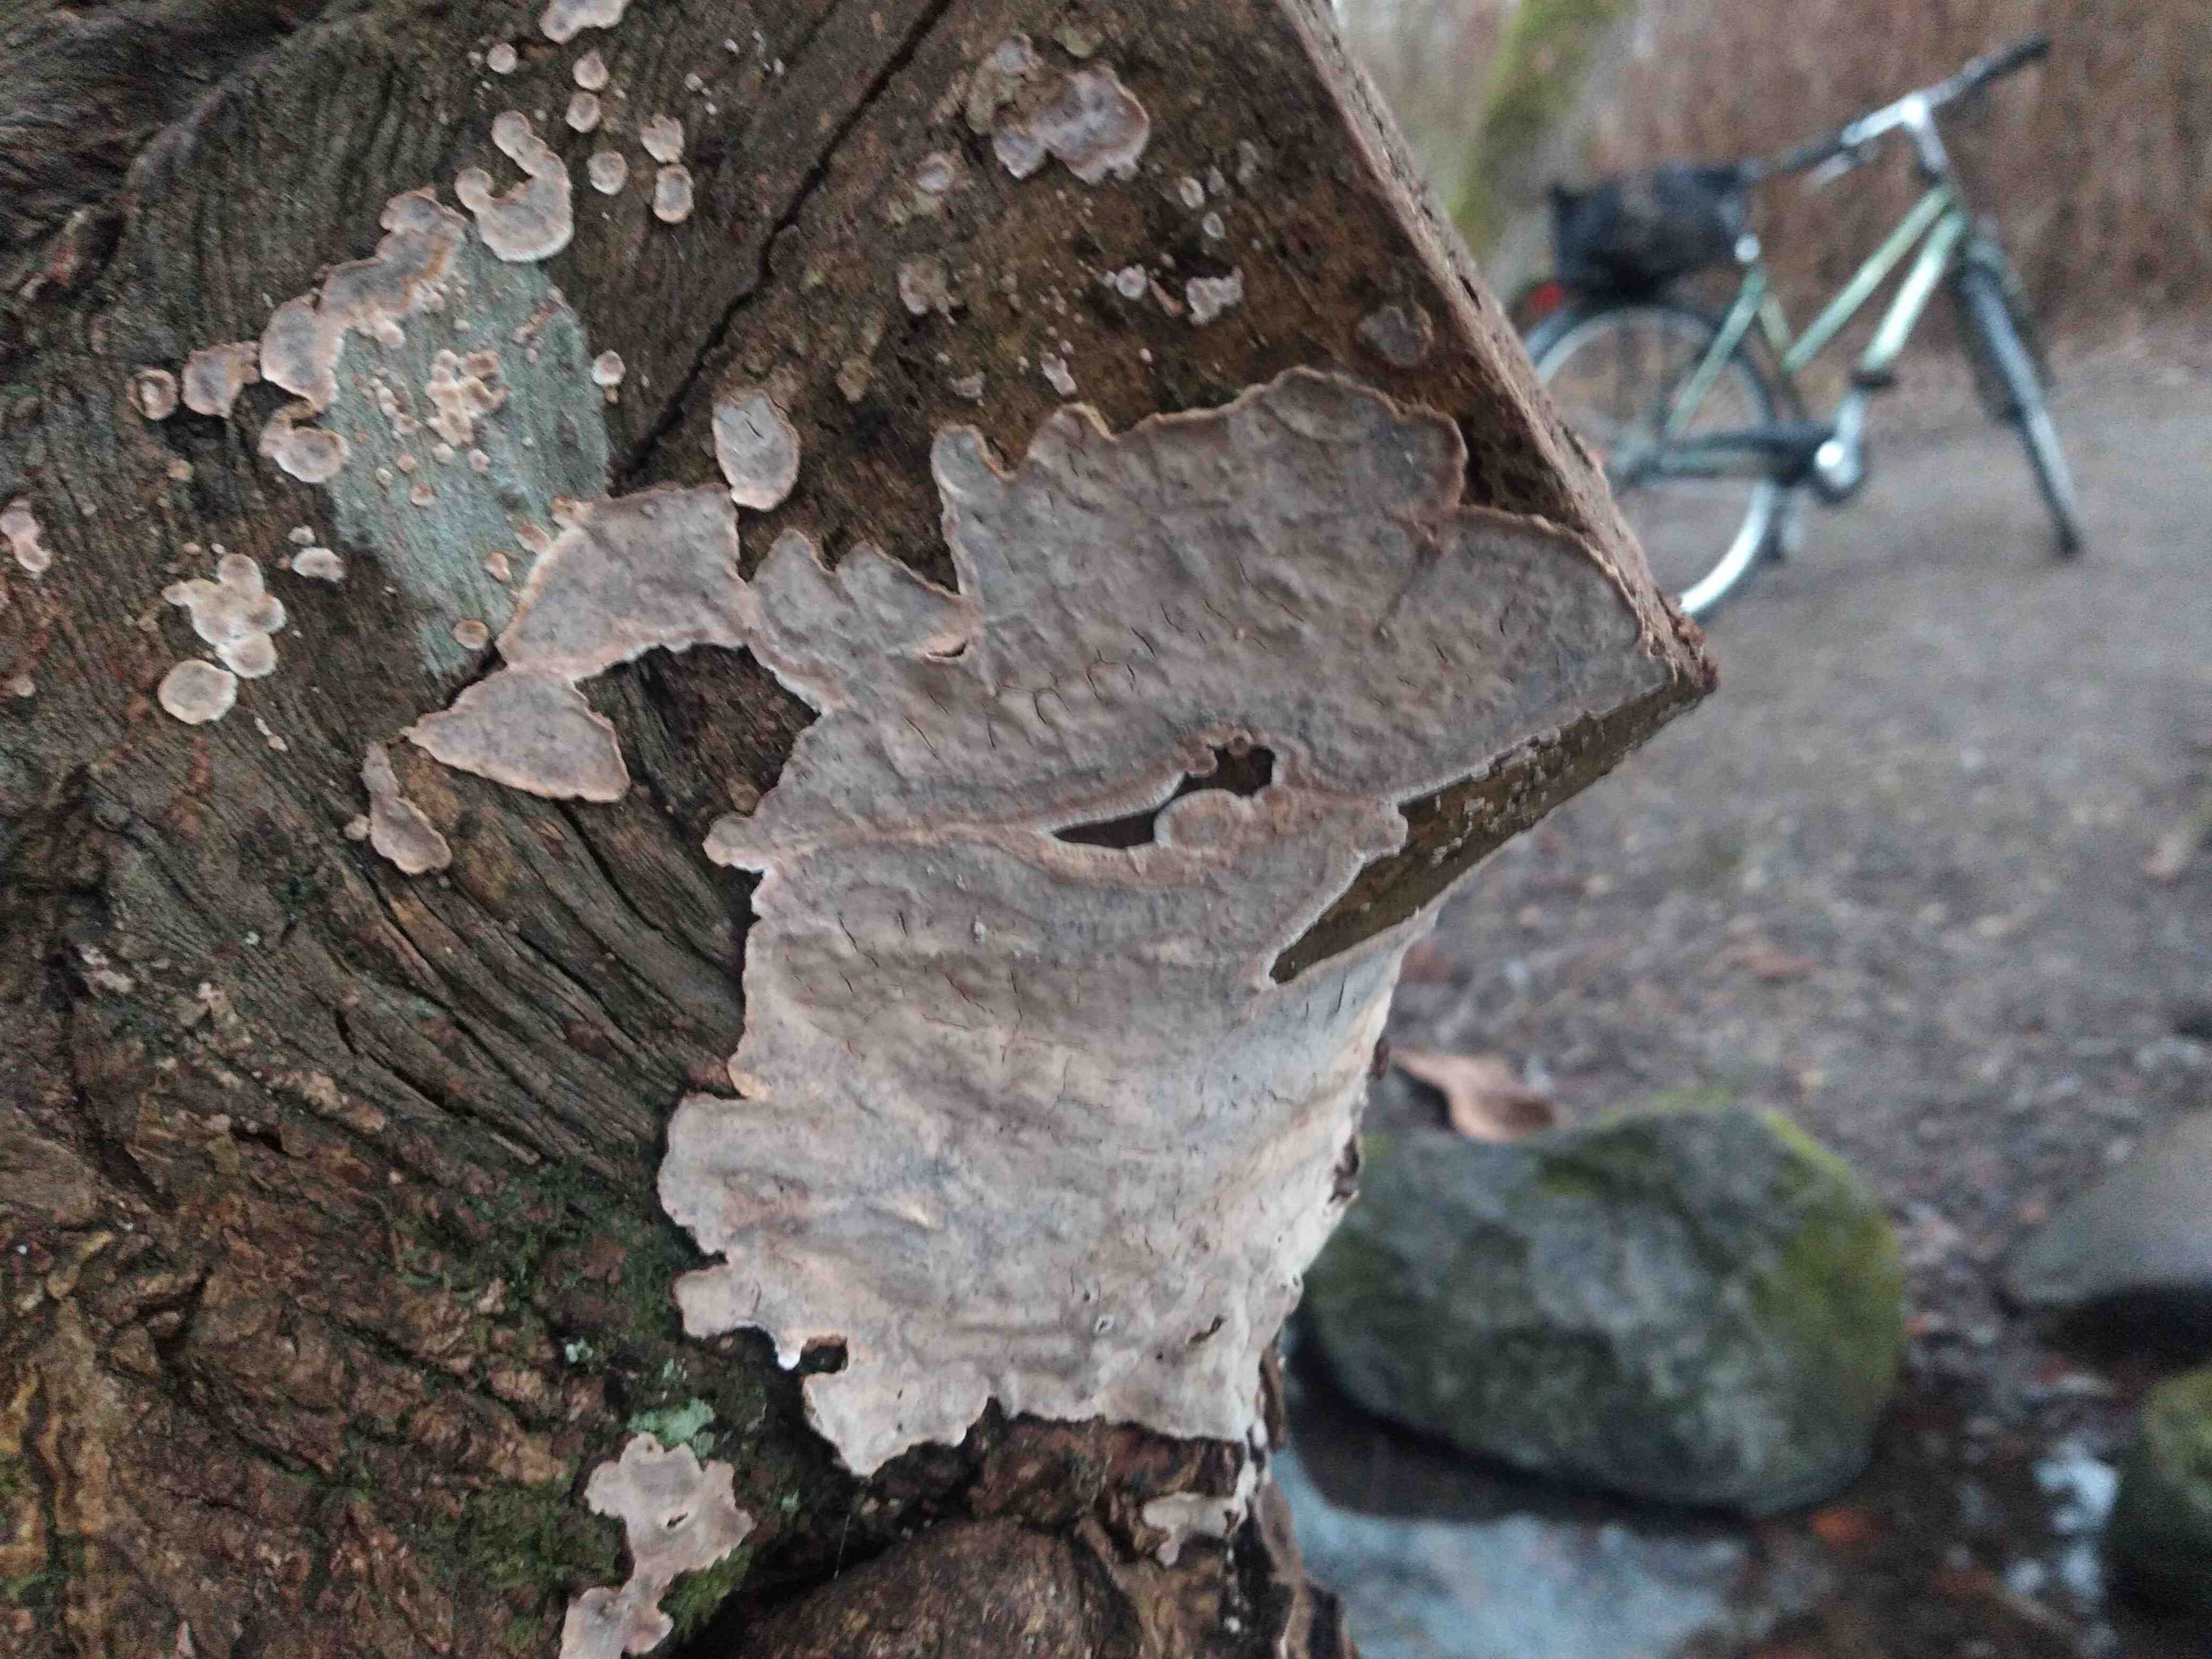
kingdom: Fungi
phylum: Basidiomycota
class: Agaricomycetes
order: Russulales
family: Stereaceae
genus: Stereum
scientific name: Stereum rugosum
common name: rynket lædersvamp
